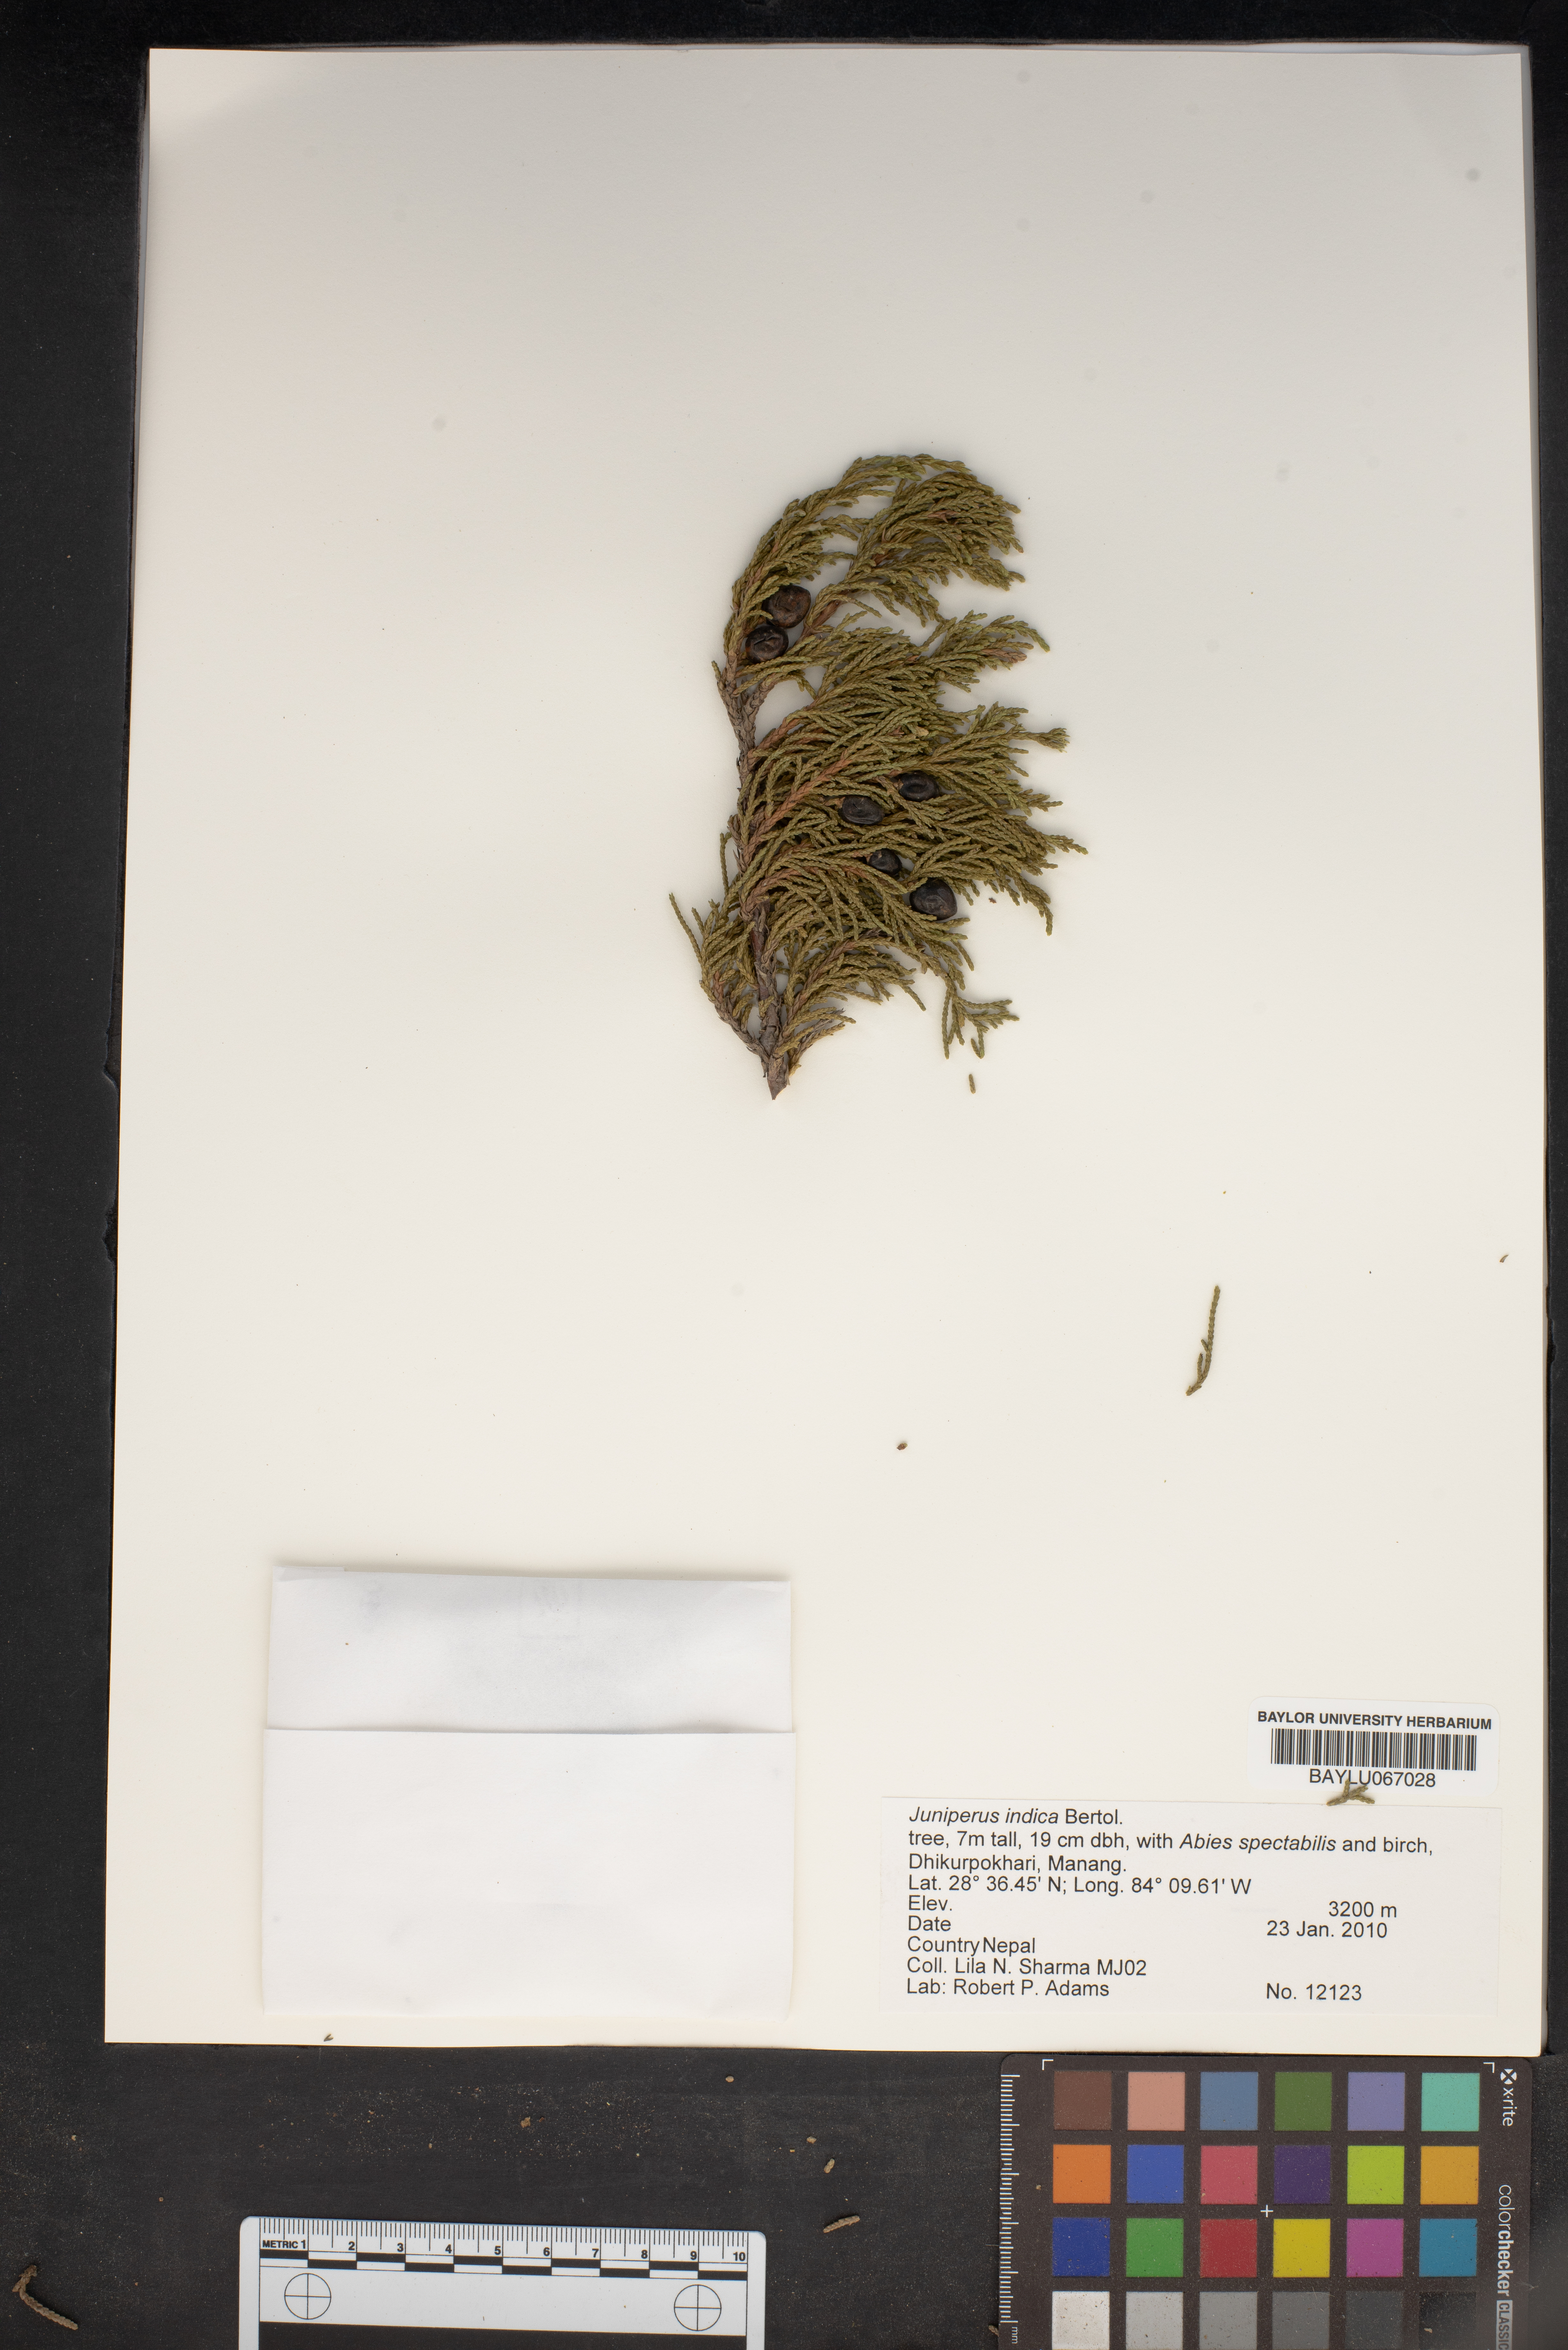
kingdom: Plantae
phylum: Tracheophyta
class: Pinopsida
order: Pinales
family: Cupressaceae
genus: Juniperus
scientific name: Juniperus indica
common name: Black juniper
